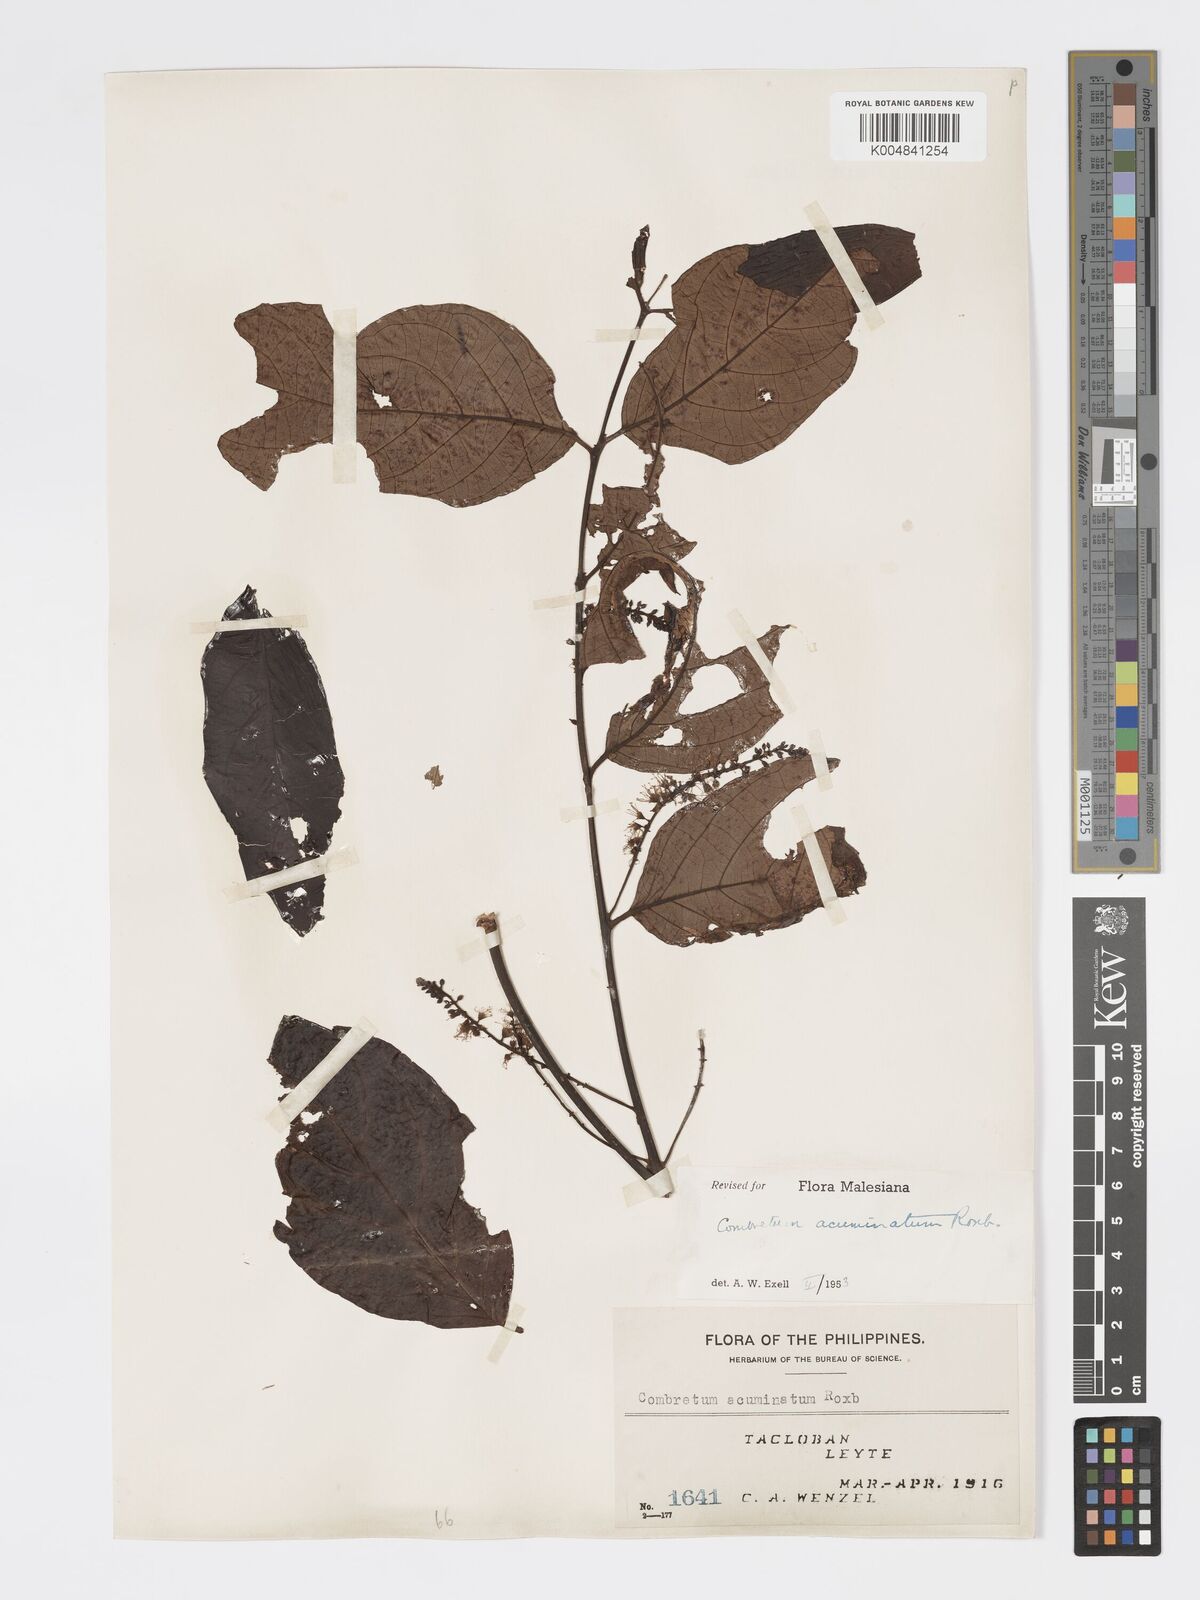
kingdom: Plantae
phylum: Tracheophyta
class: Magnoliopsida
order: Myrtales
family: Combretaceae
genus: Combretum
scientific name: Combretum acuminatum
